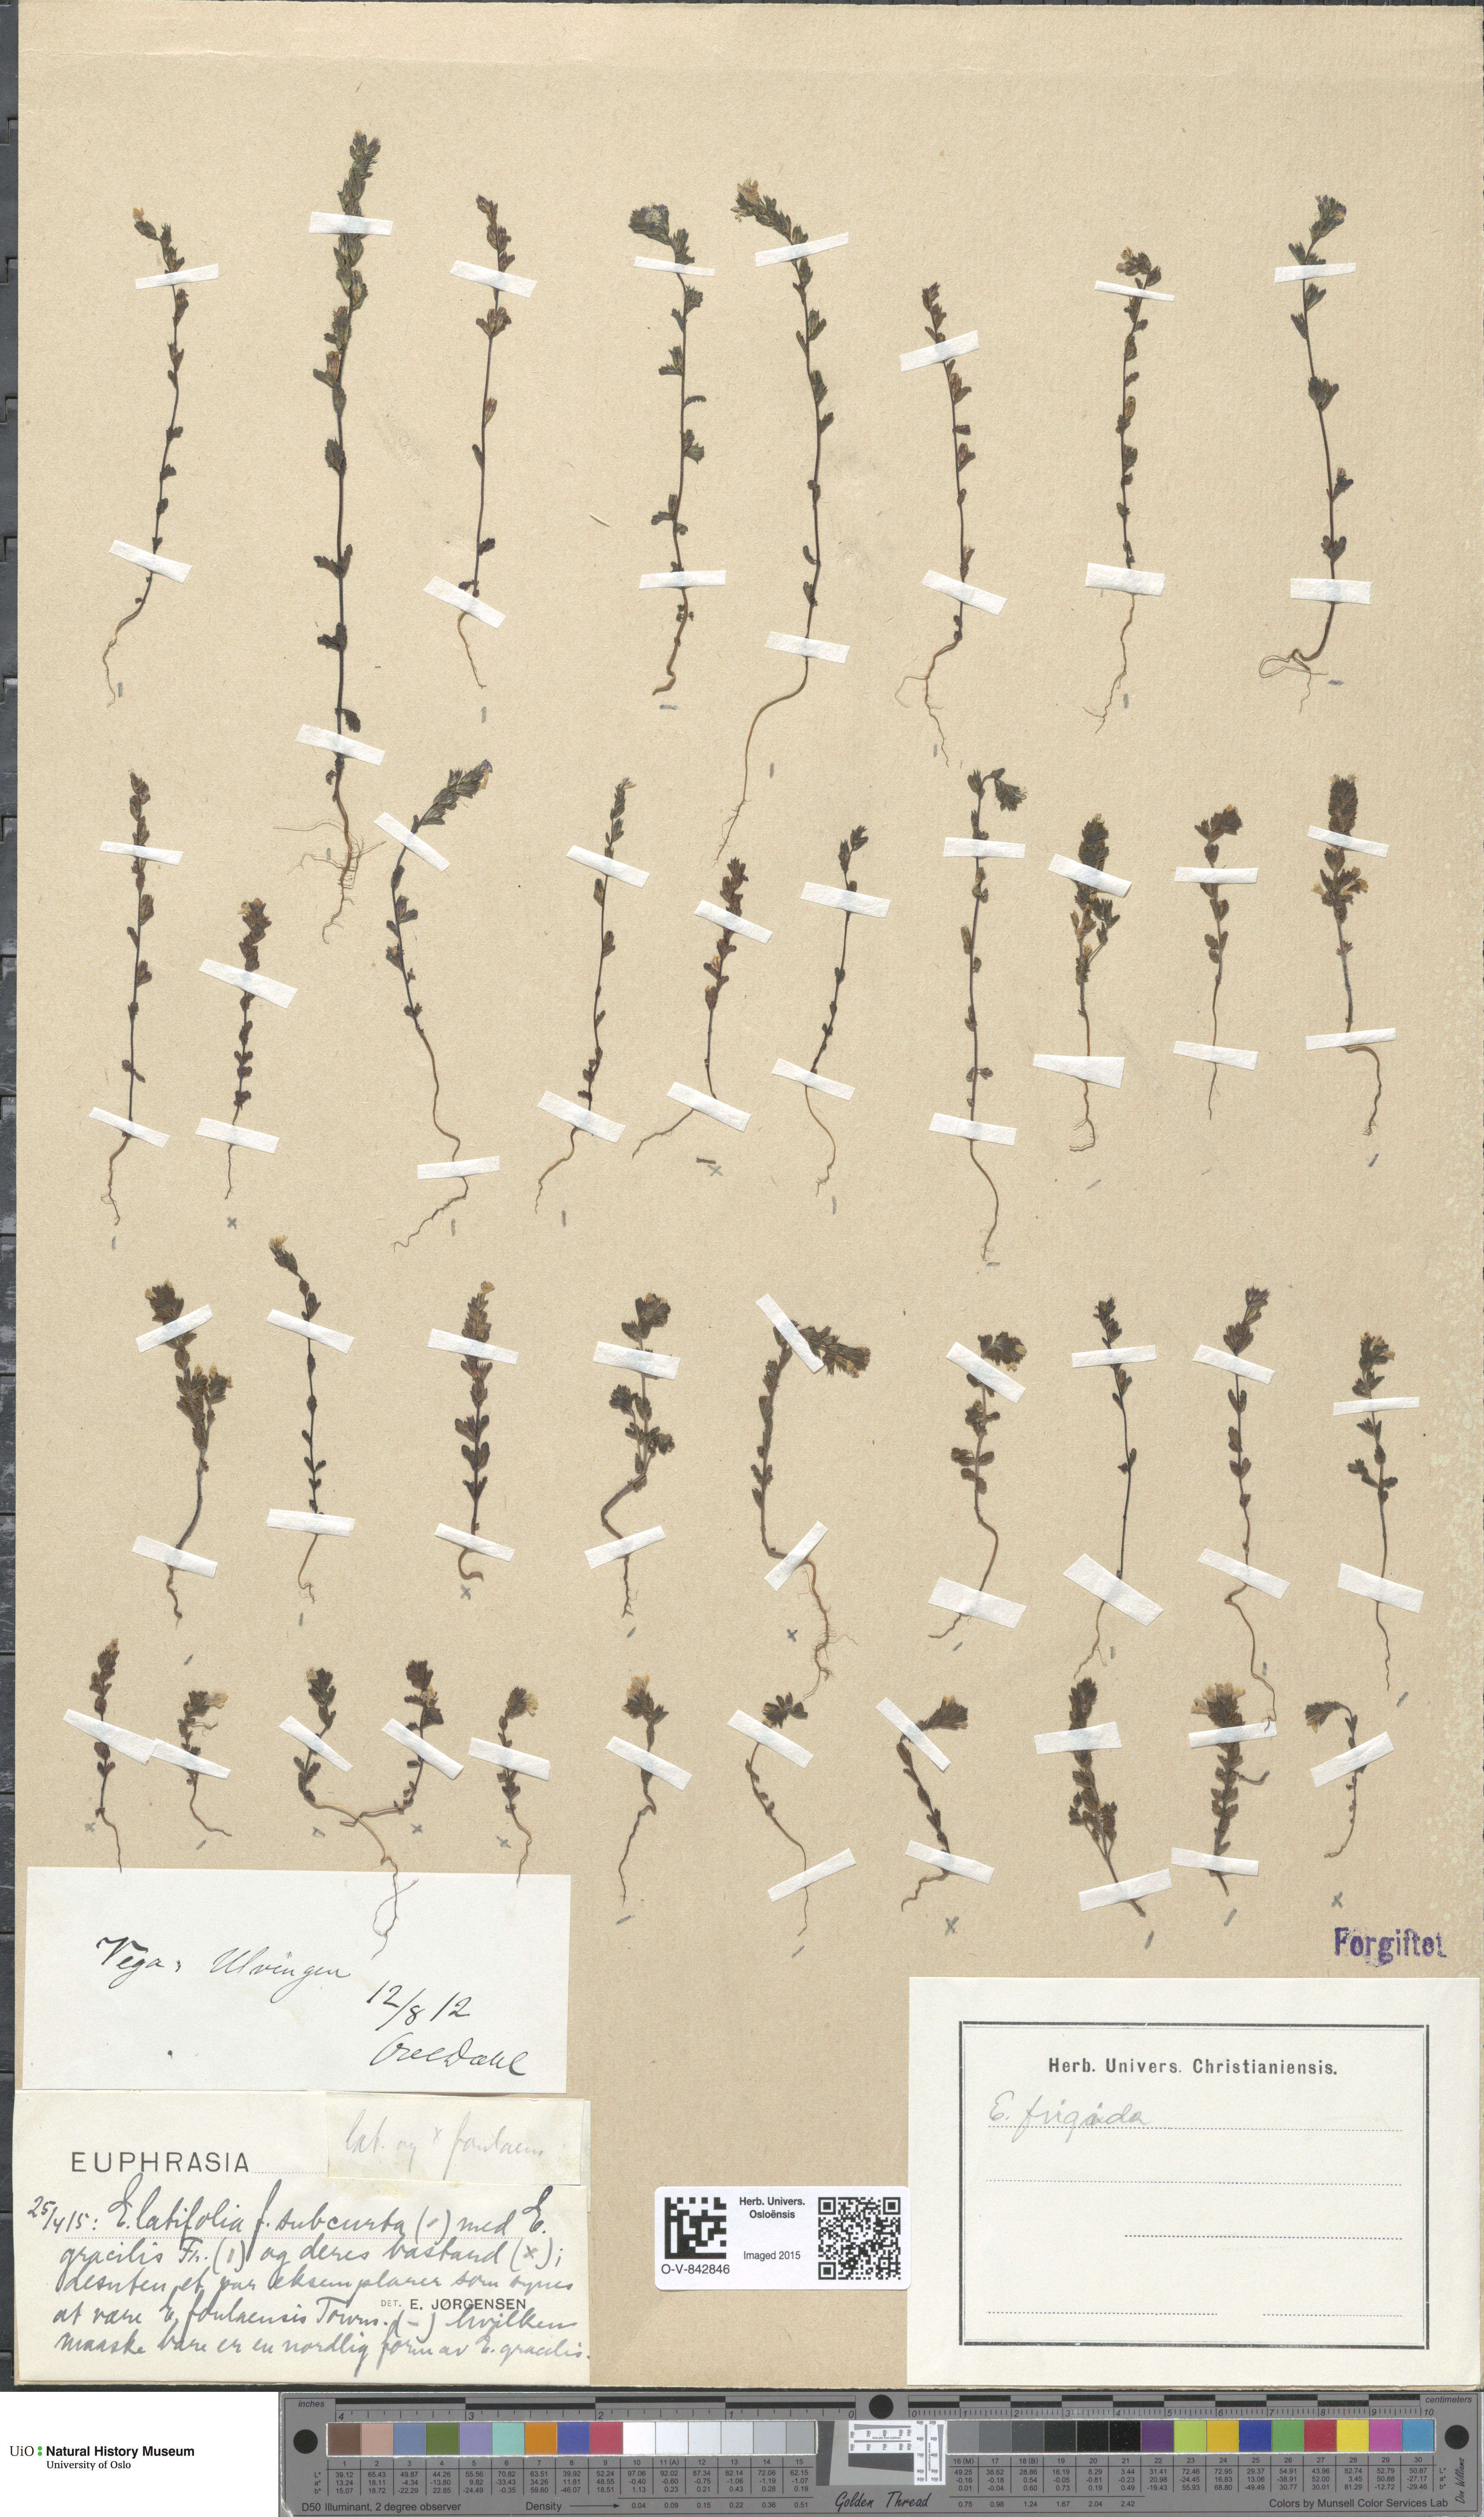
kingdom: Plantae
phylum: Tracheophyta
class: Magnoliopsida
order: Lamiales
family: Orobanchaceae
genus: Euphrasia
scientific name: Euphrasia wettsteinii
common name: Wettstein's eyebright
